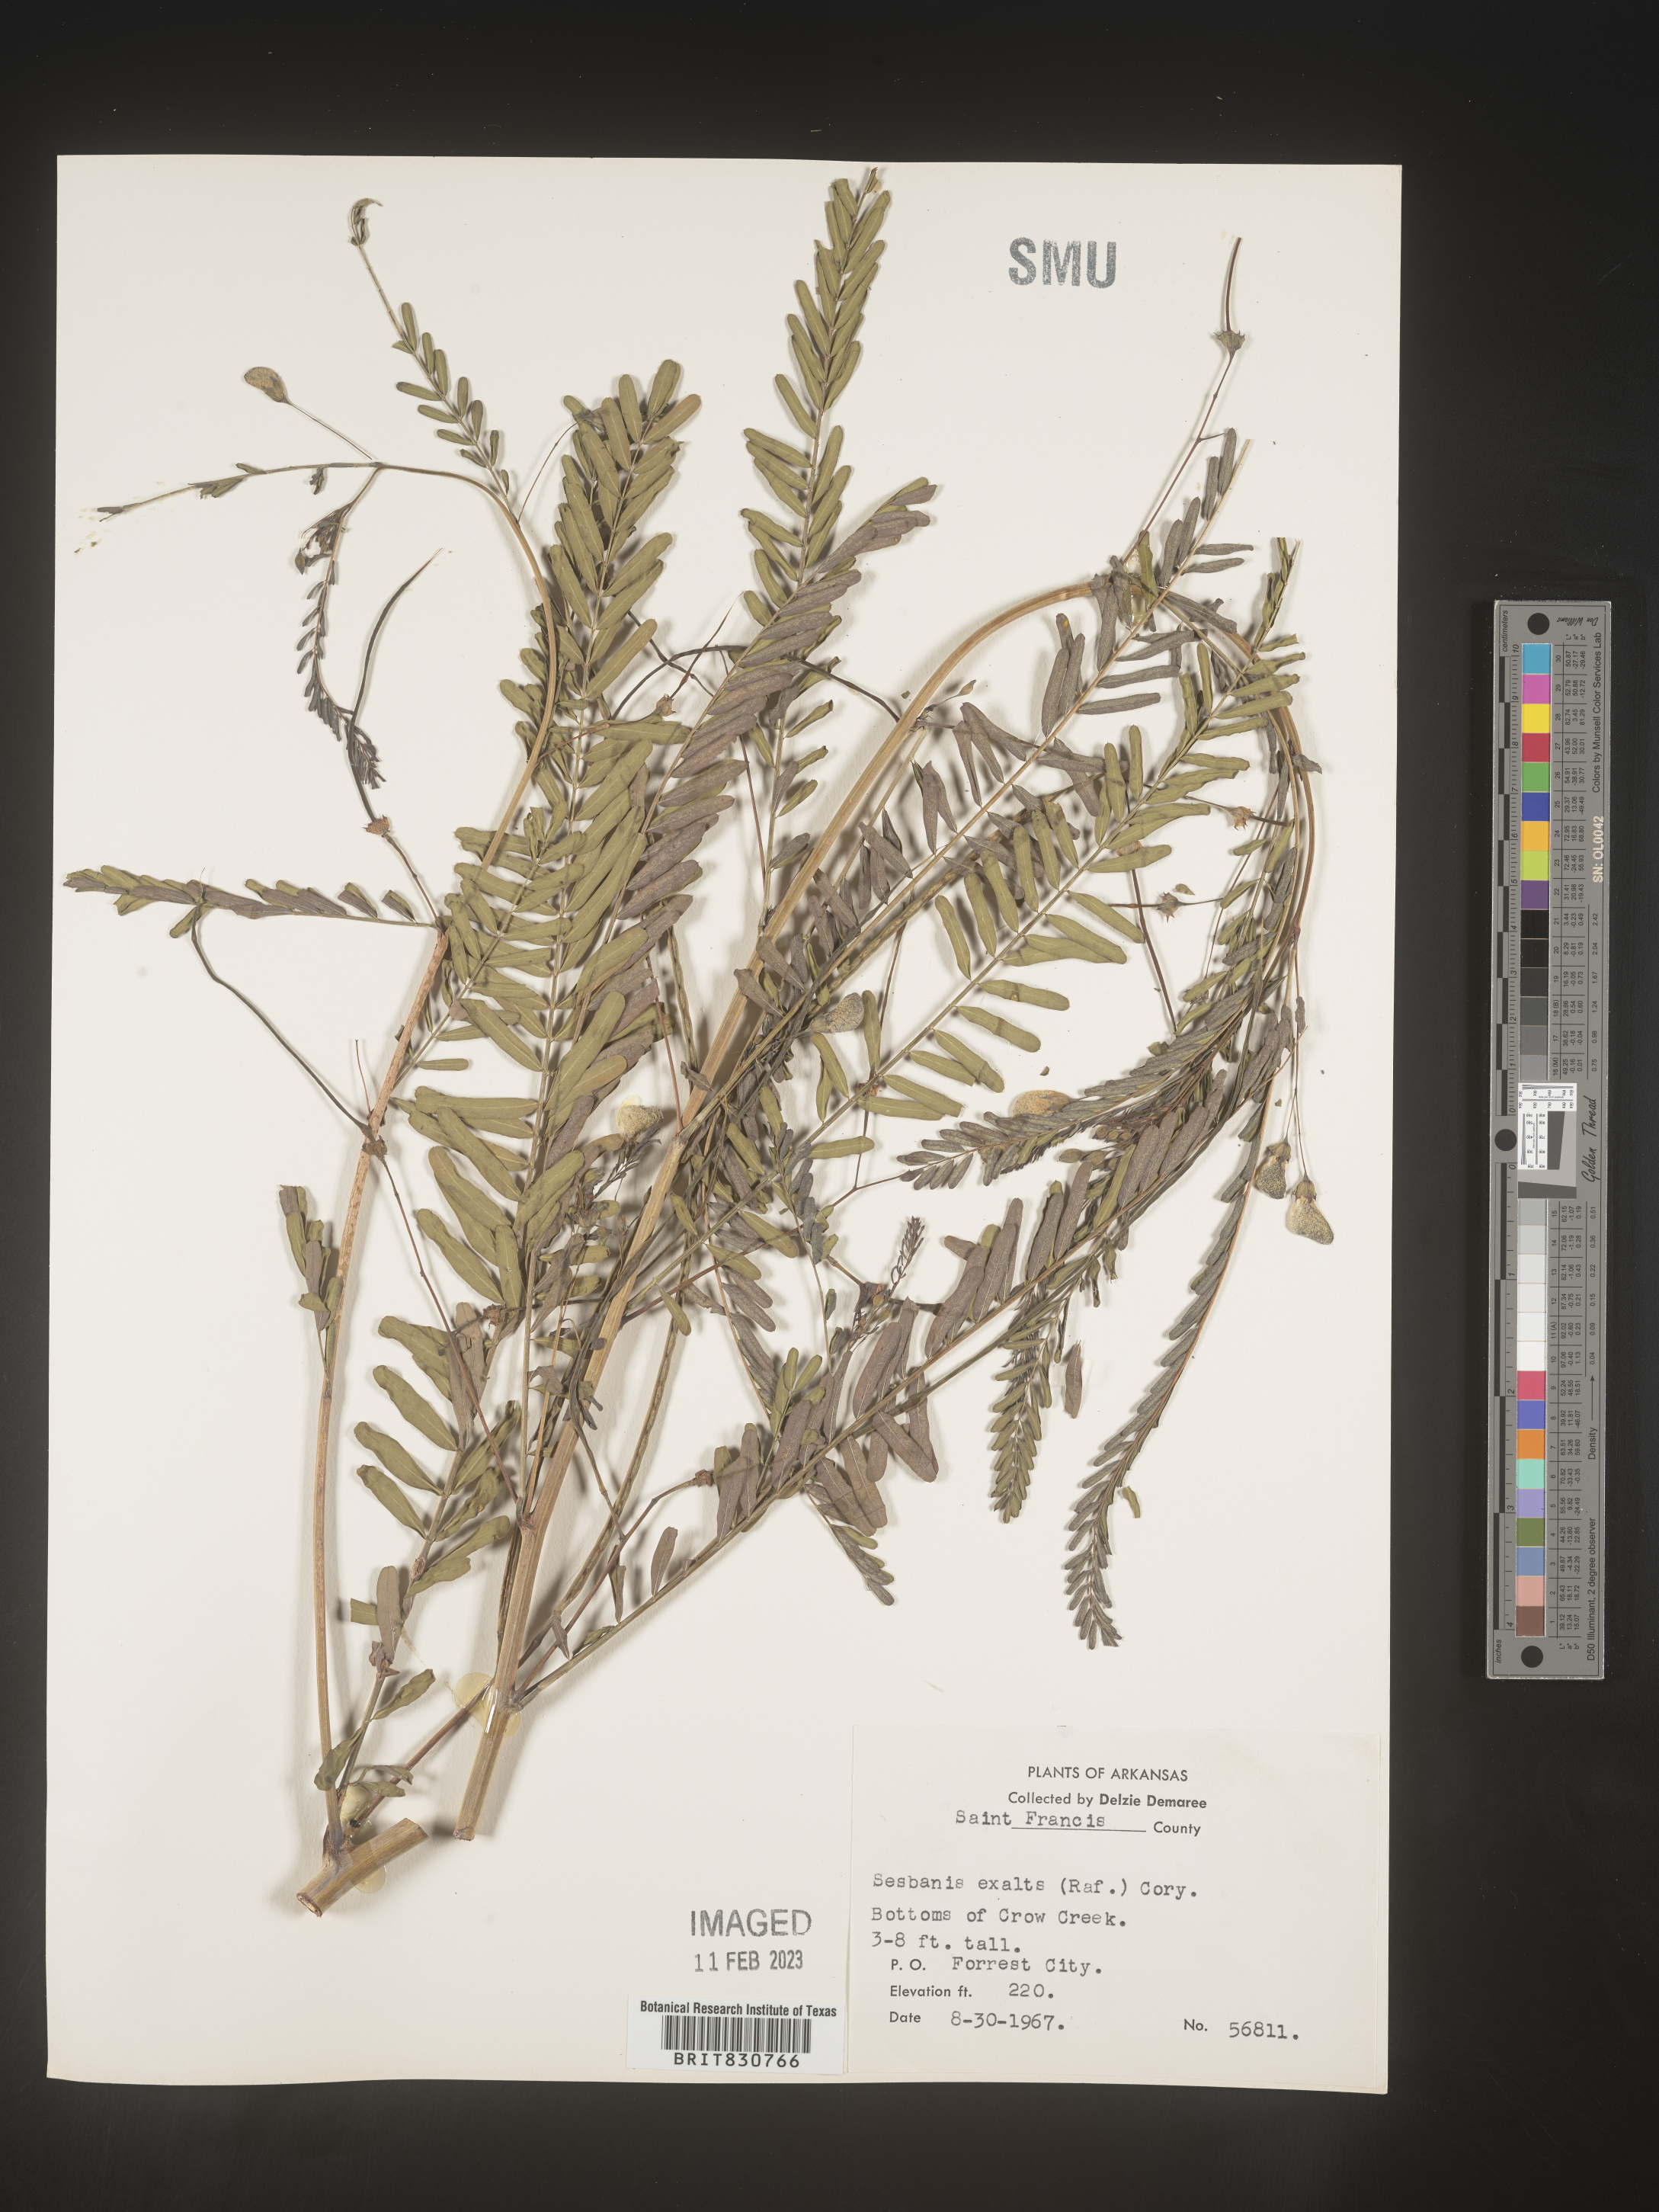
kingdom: Plantae
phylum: Tracheophyta
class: Magnoliopsida
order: Fabales
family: Fabaceae
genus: Sesbania
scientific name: Sesbania vesicaria
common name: Bagpod
